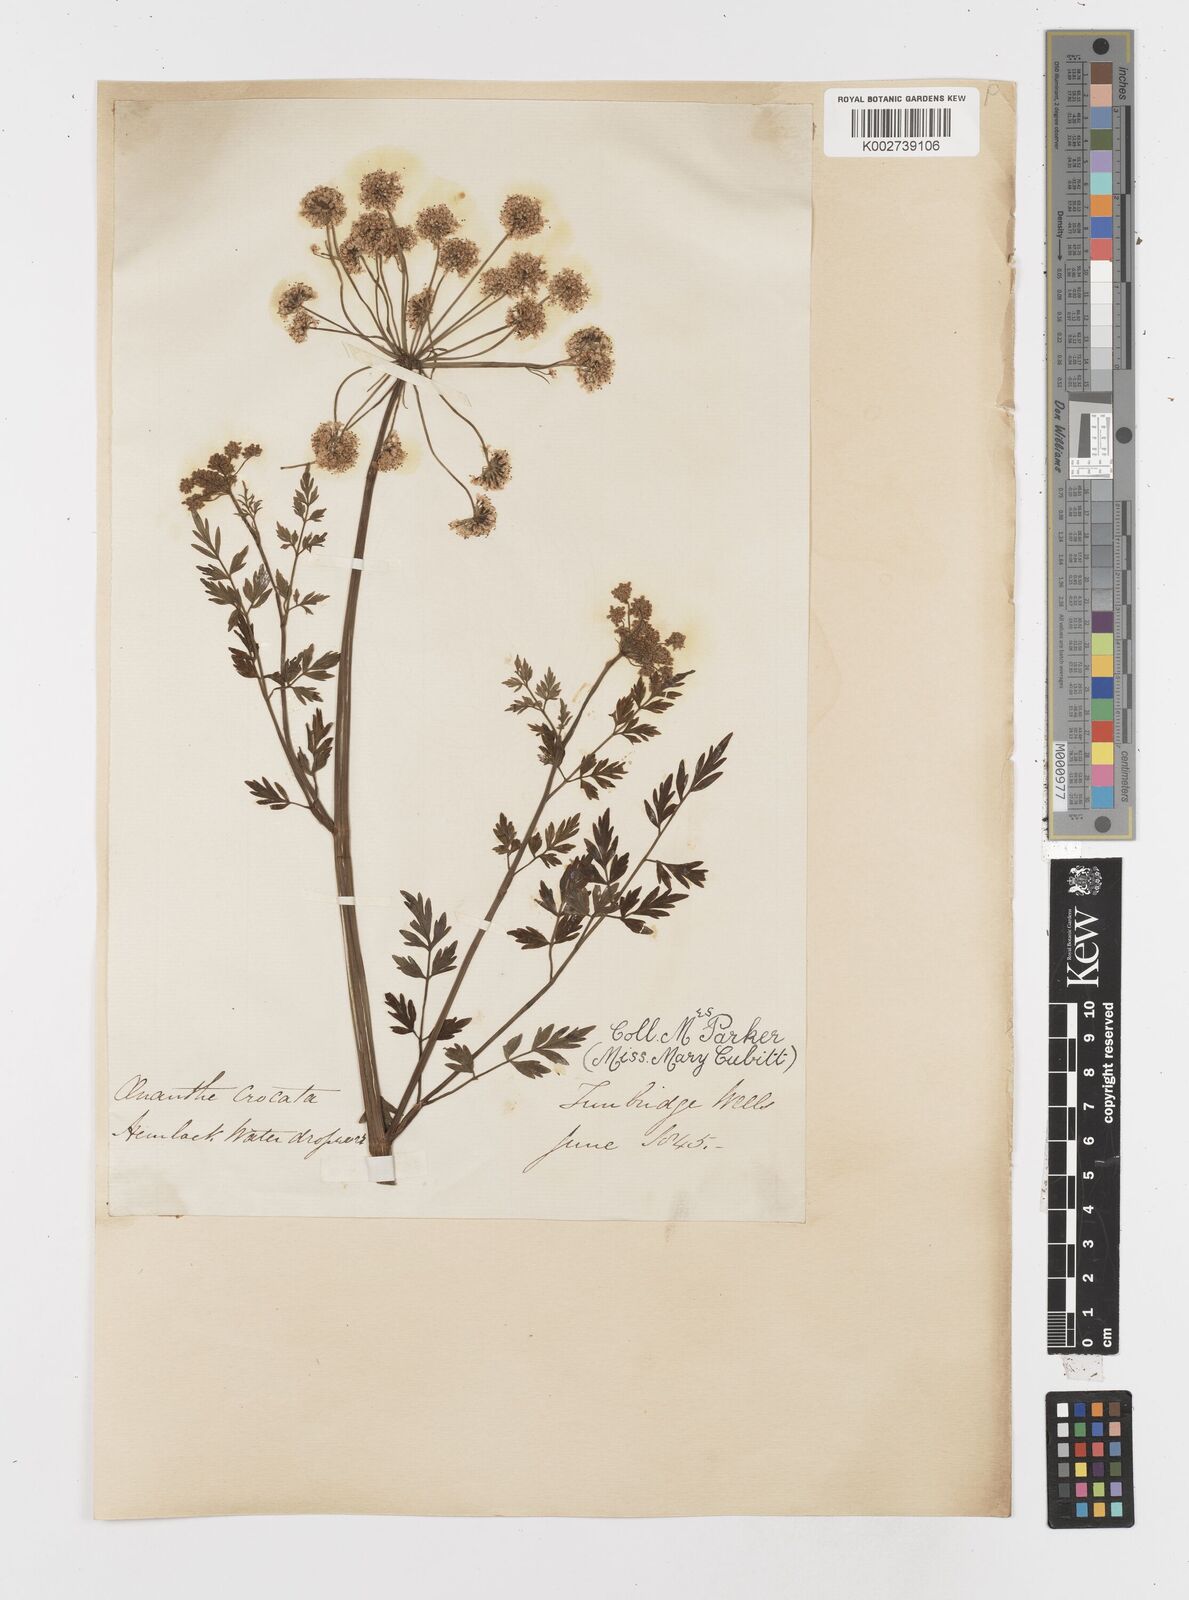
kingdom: Plantae
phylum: Tracheophyta
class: Magnoliopsida
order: Apiales
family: Apiaceae
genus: Oenanthe
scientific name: Oenanthe crocata
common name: Hemlock water-dropwort
